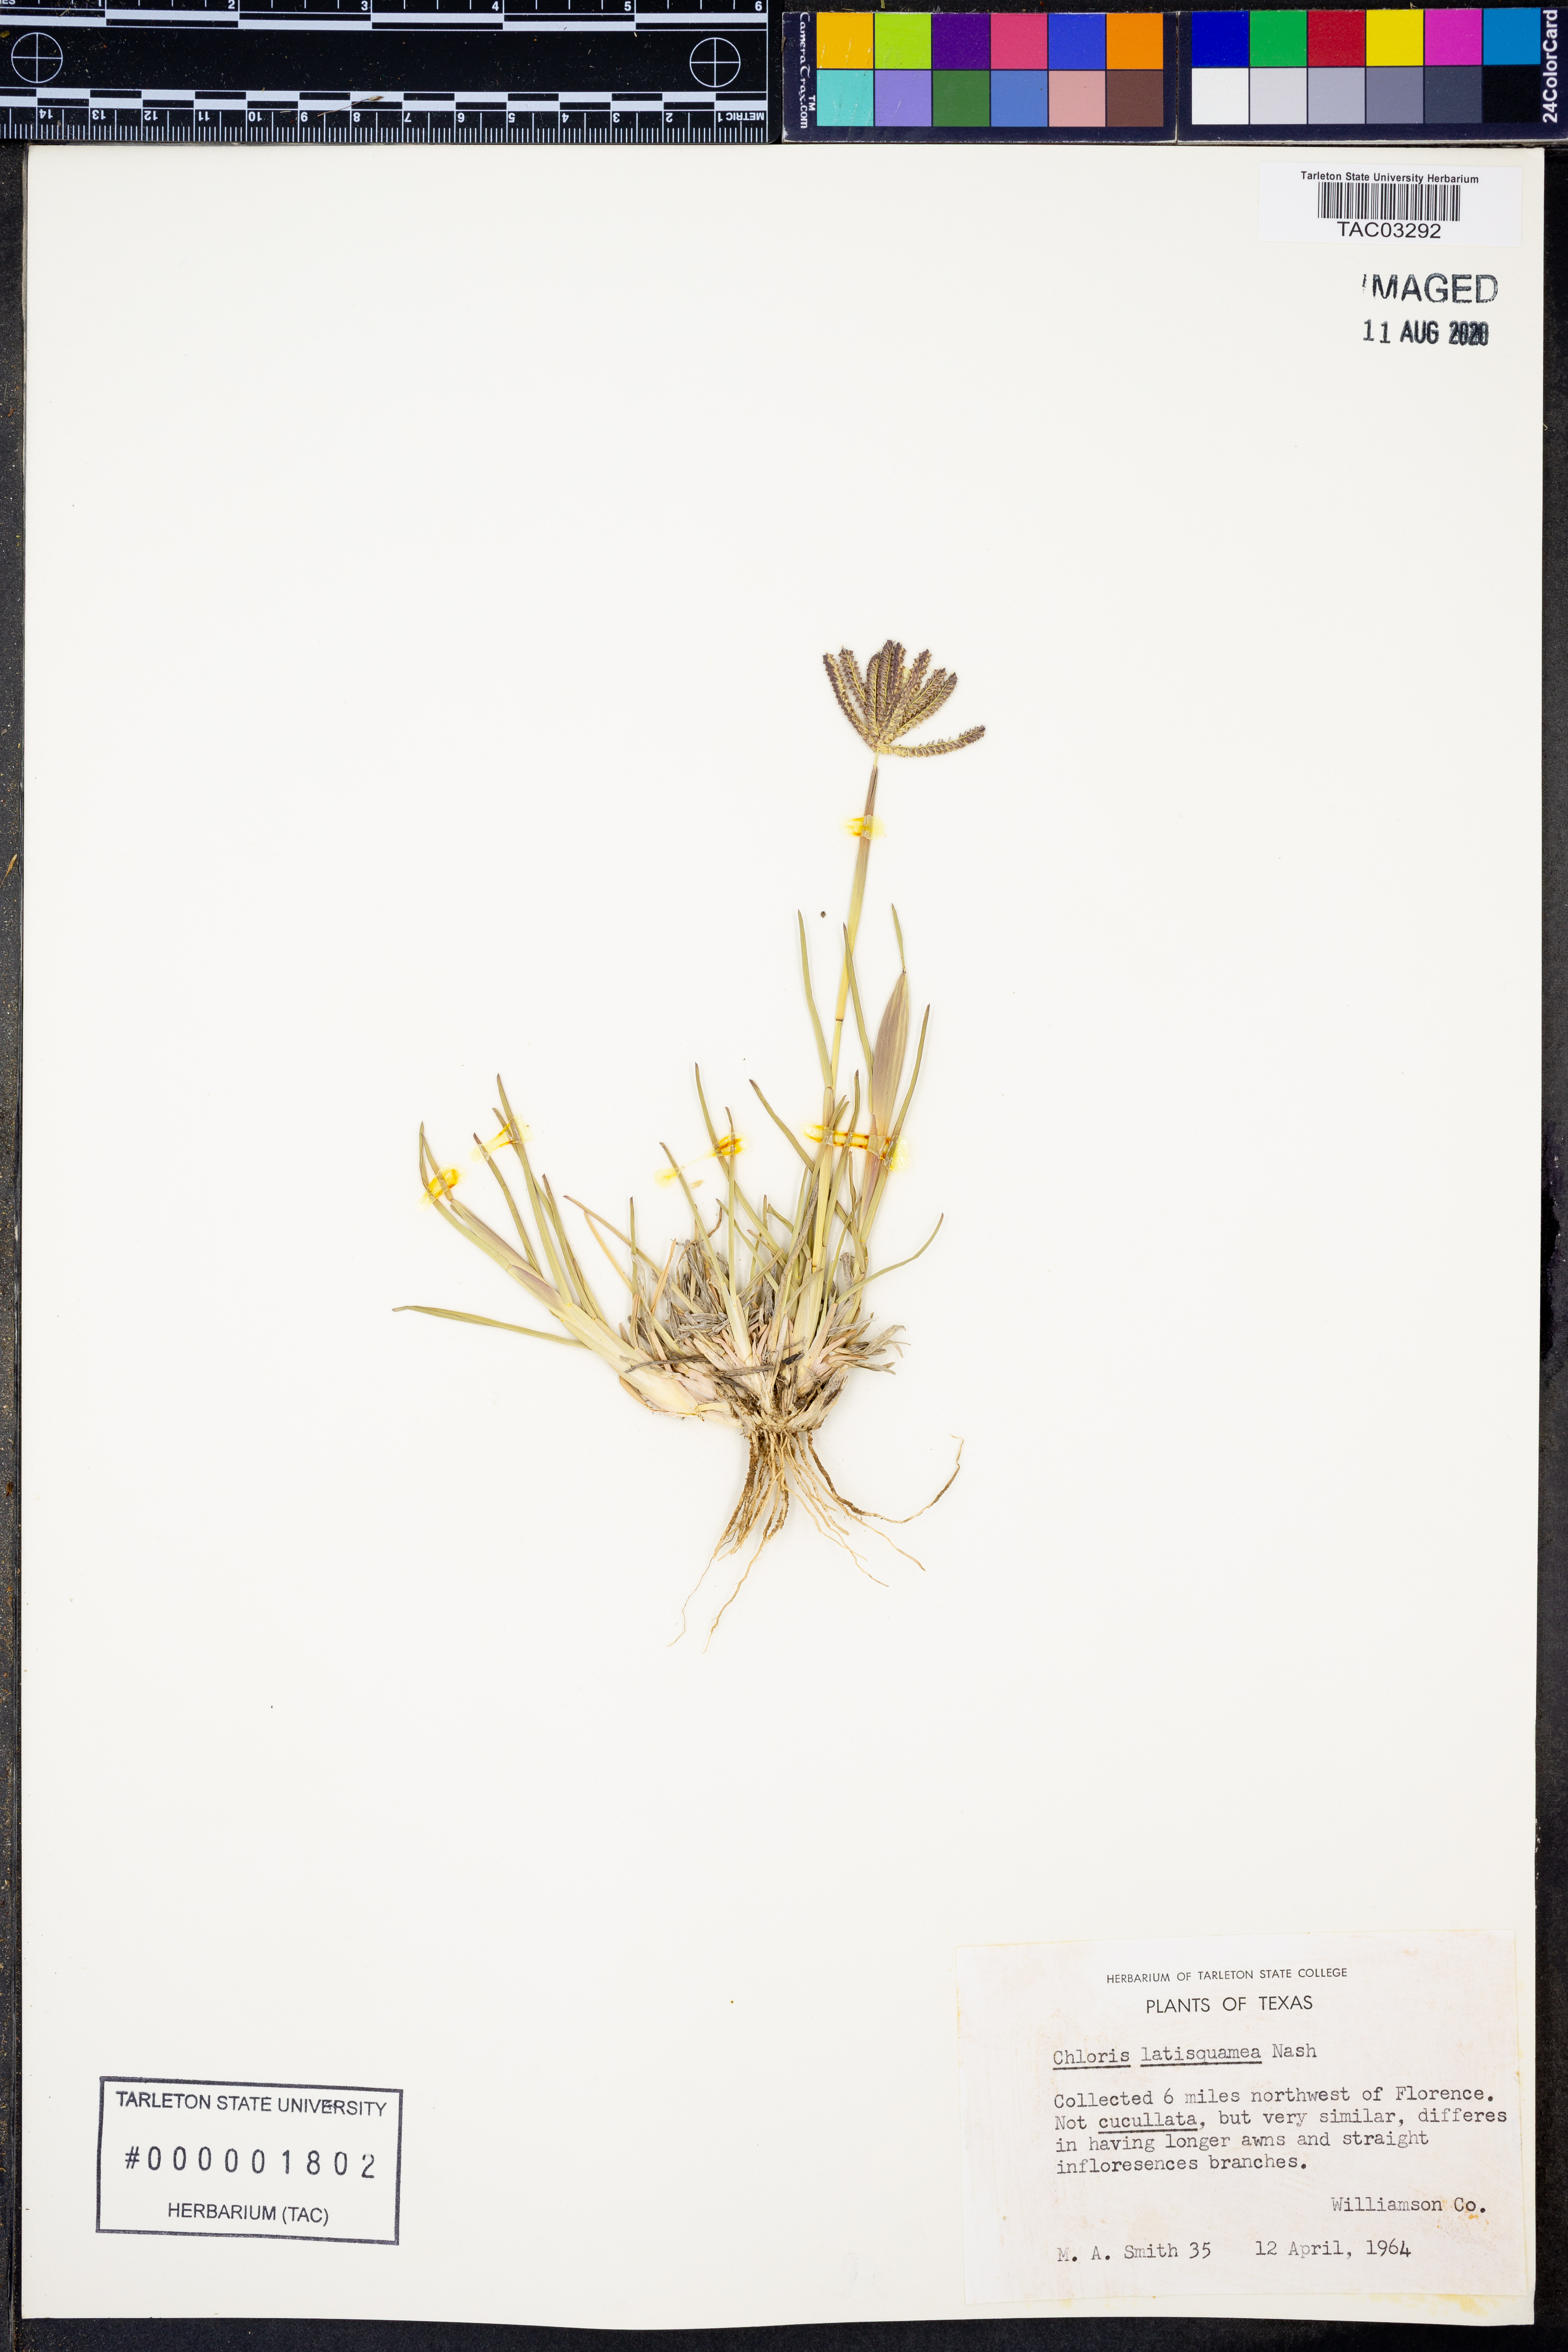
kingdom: Plantae
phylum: Tracheophyta
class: Liliopsida
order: Poales
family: Poaceae
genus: Chloris
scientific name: Chloris subdolichostachya
